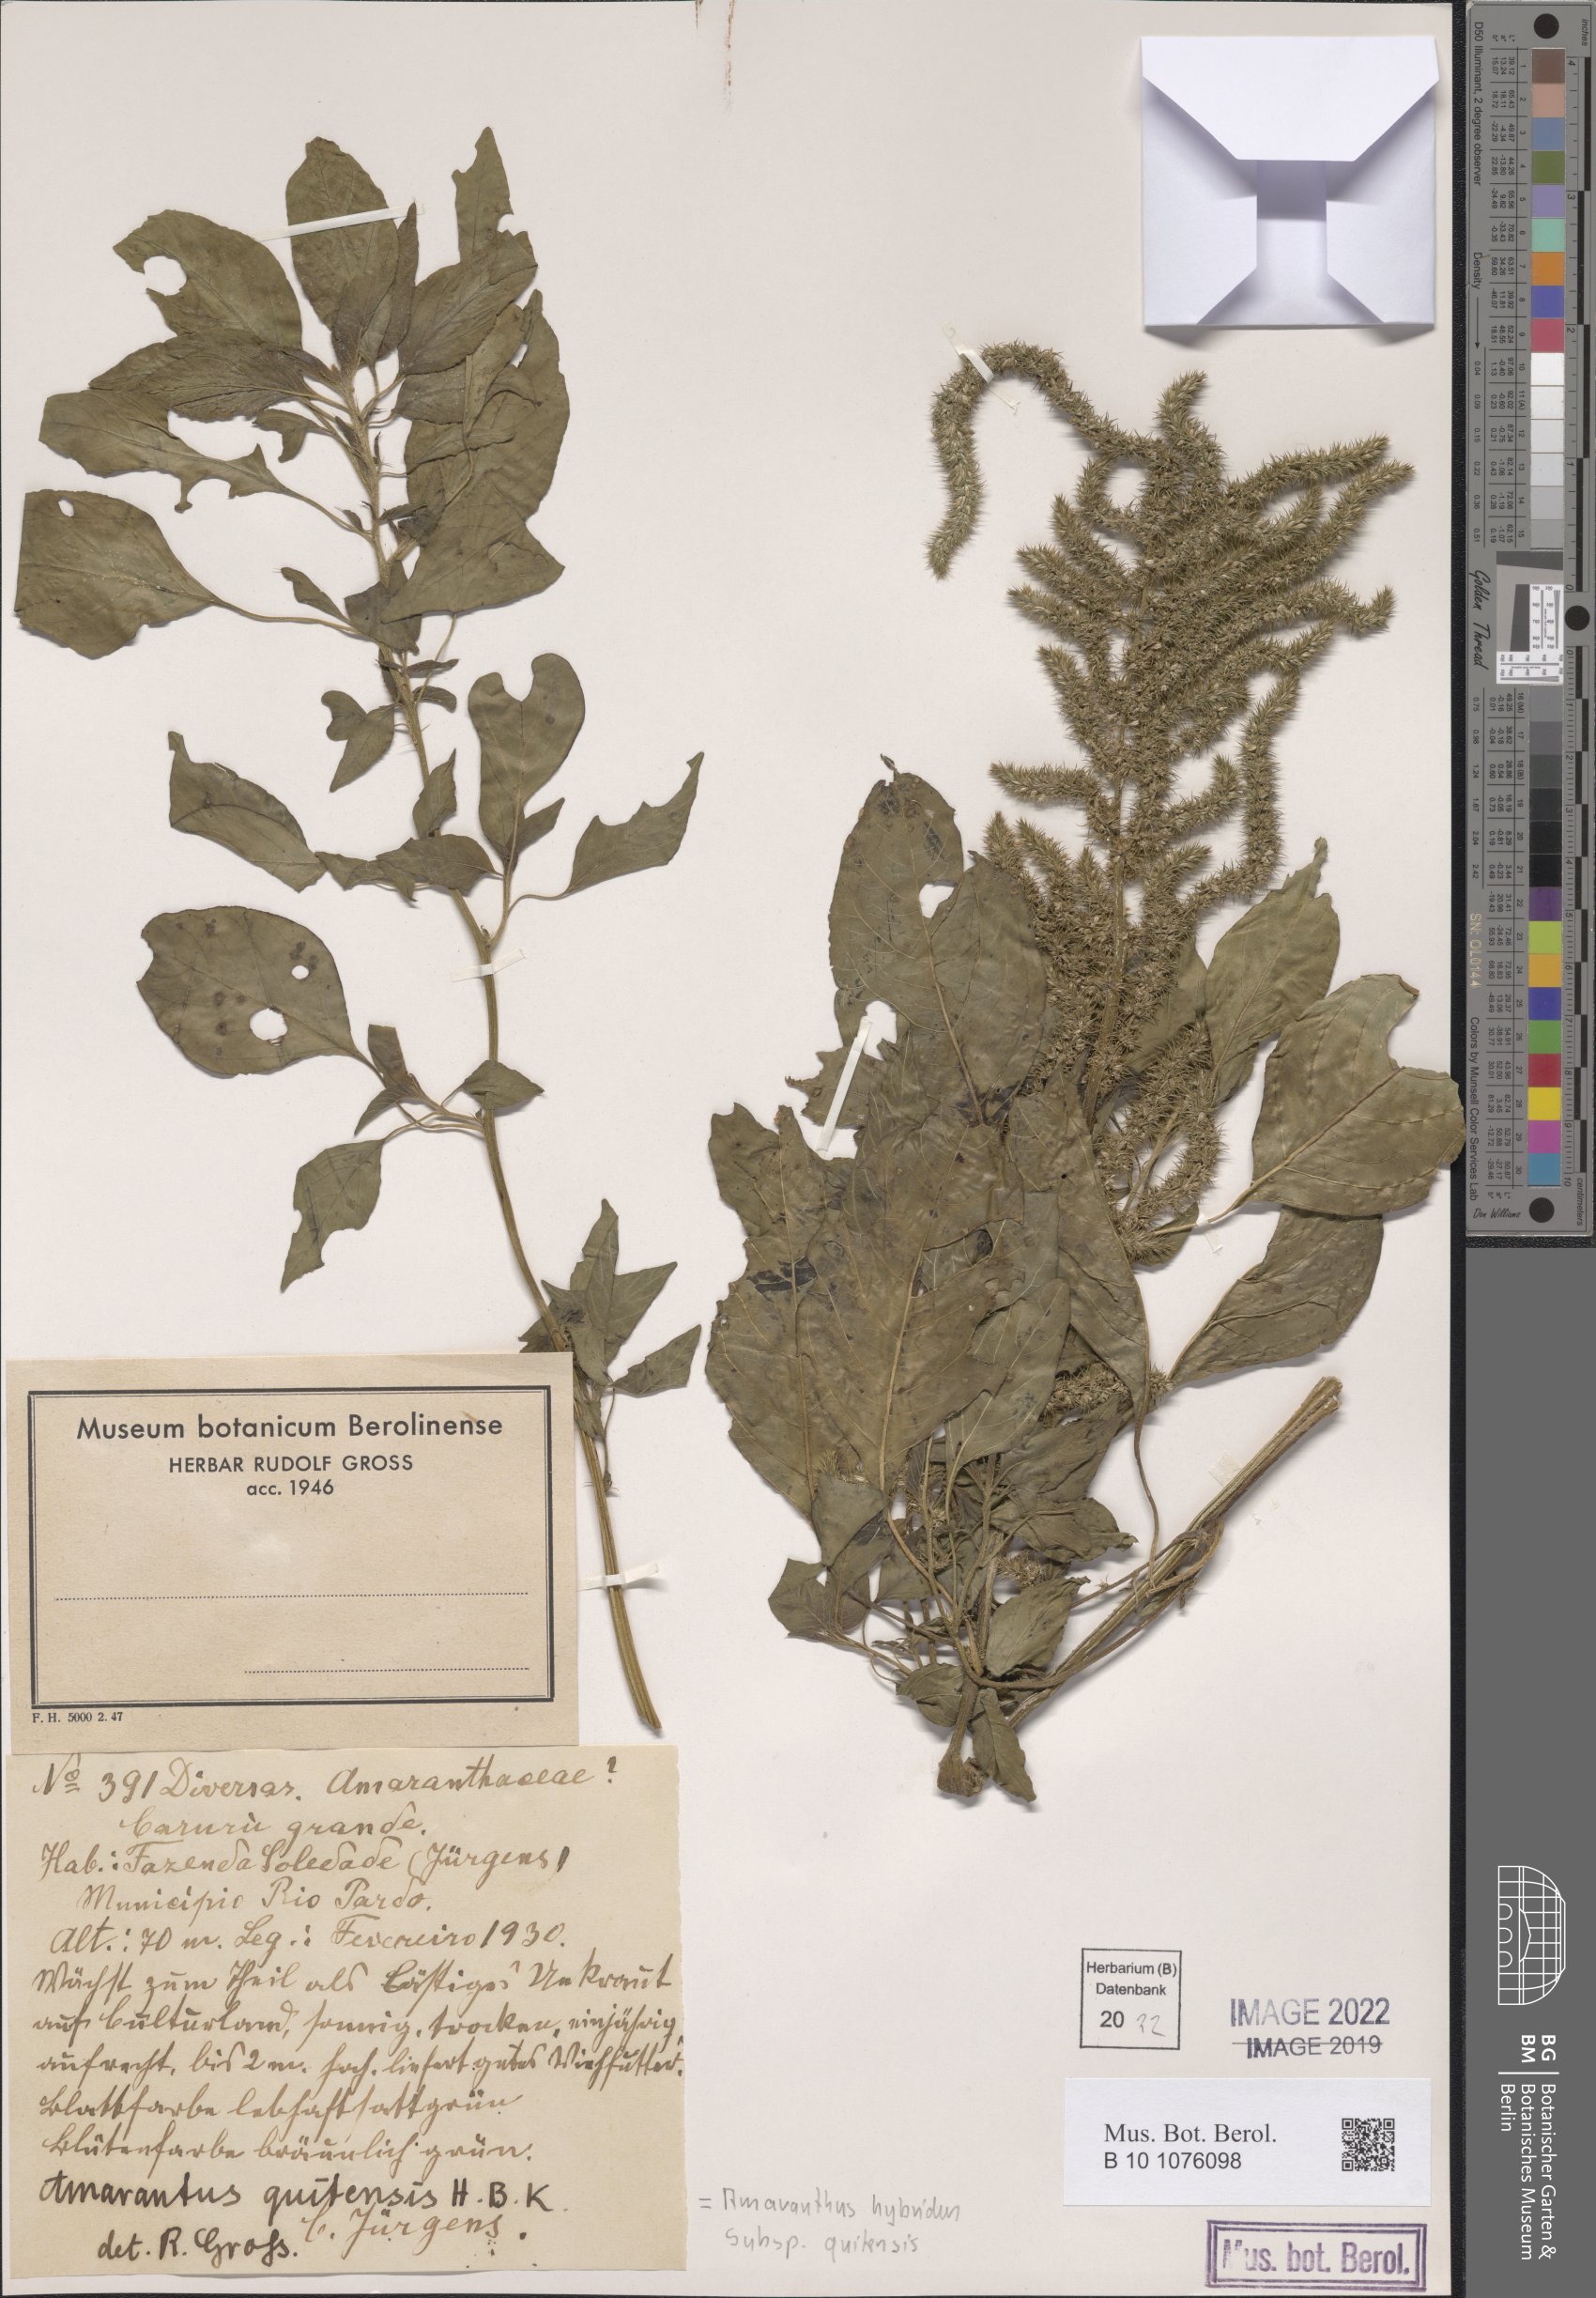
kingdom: Plantae
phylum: Tracheophyta
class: Magnoliopsida
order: Caryophyllales
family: Amaranthaceae
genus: Amaranthus
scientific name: Amaranthus quitensis
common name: Mucronate amaranth
